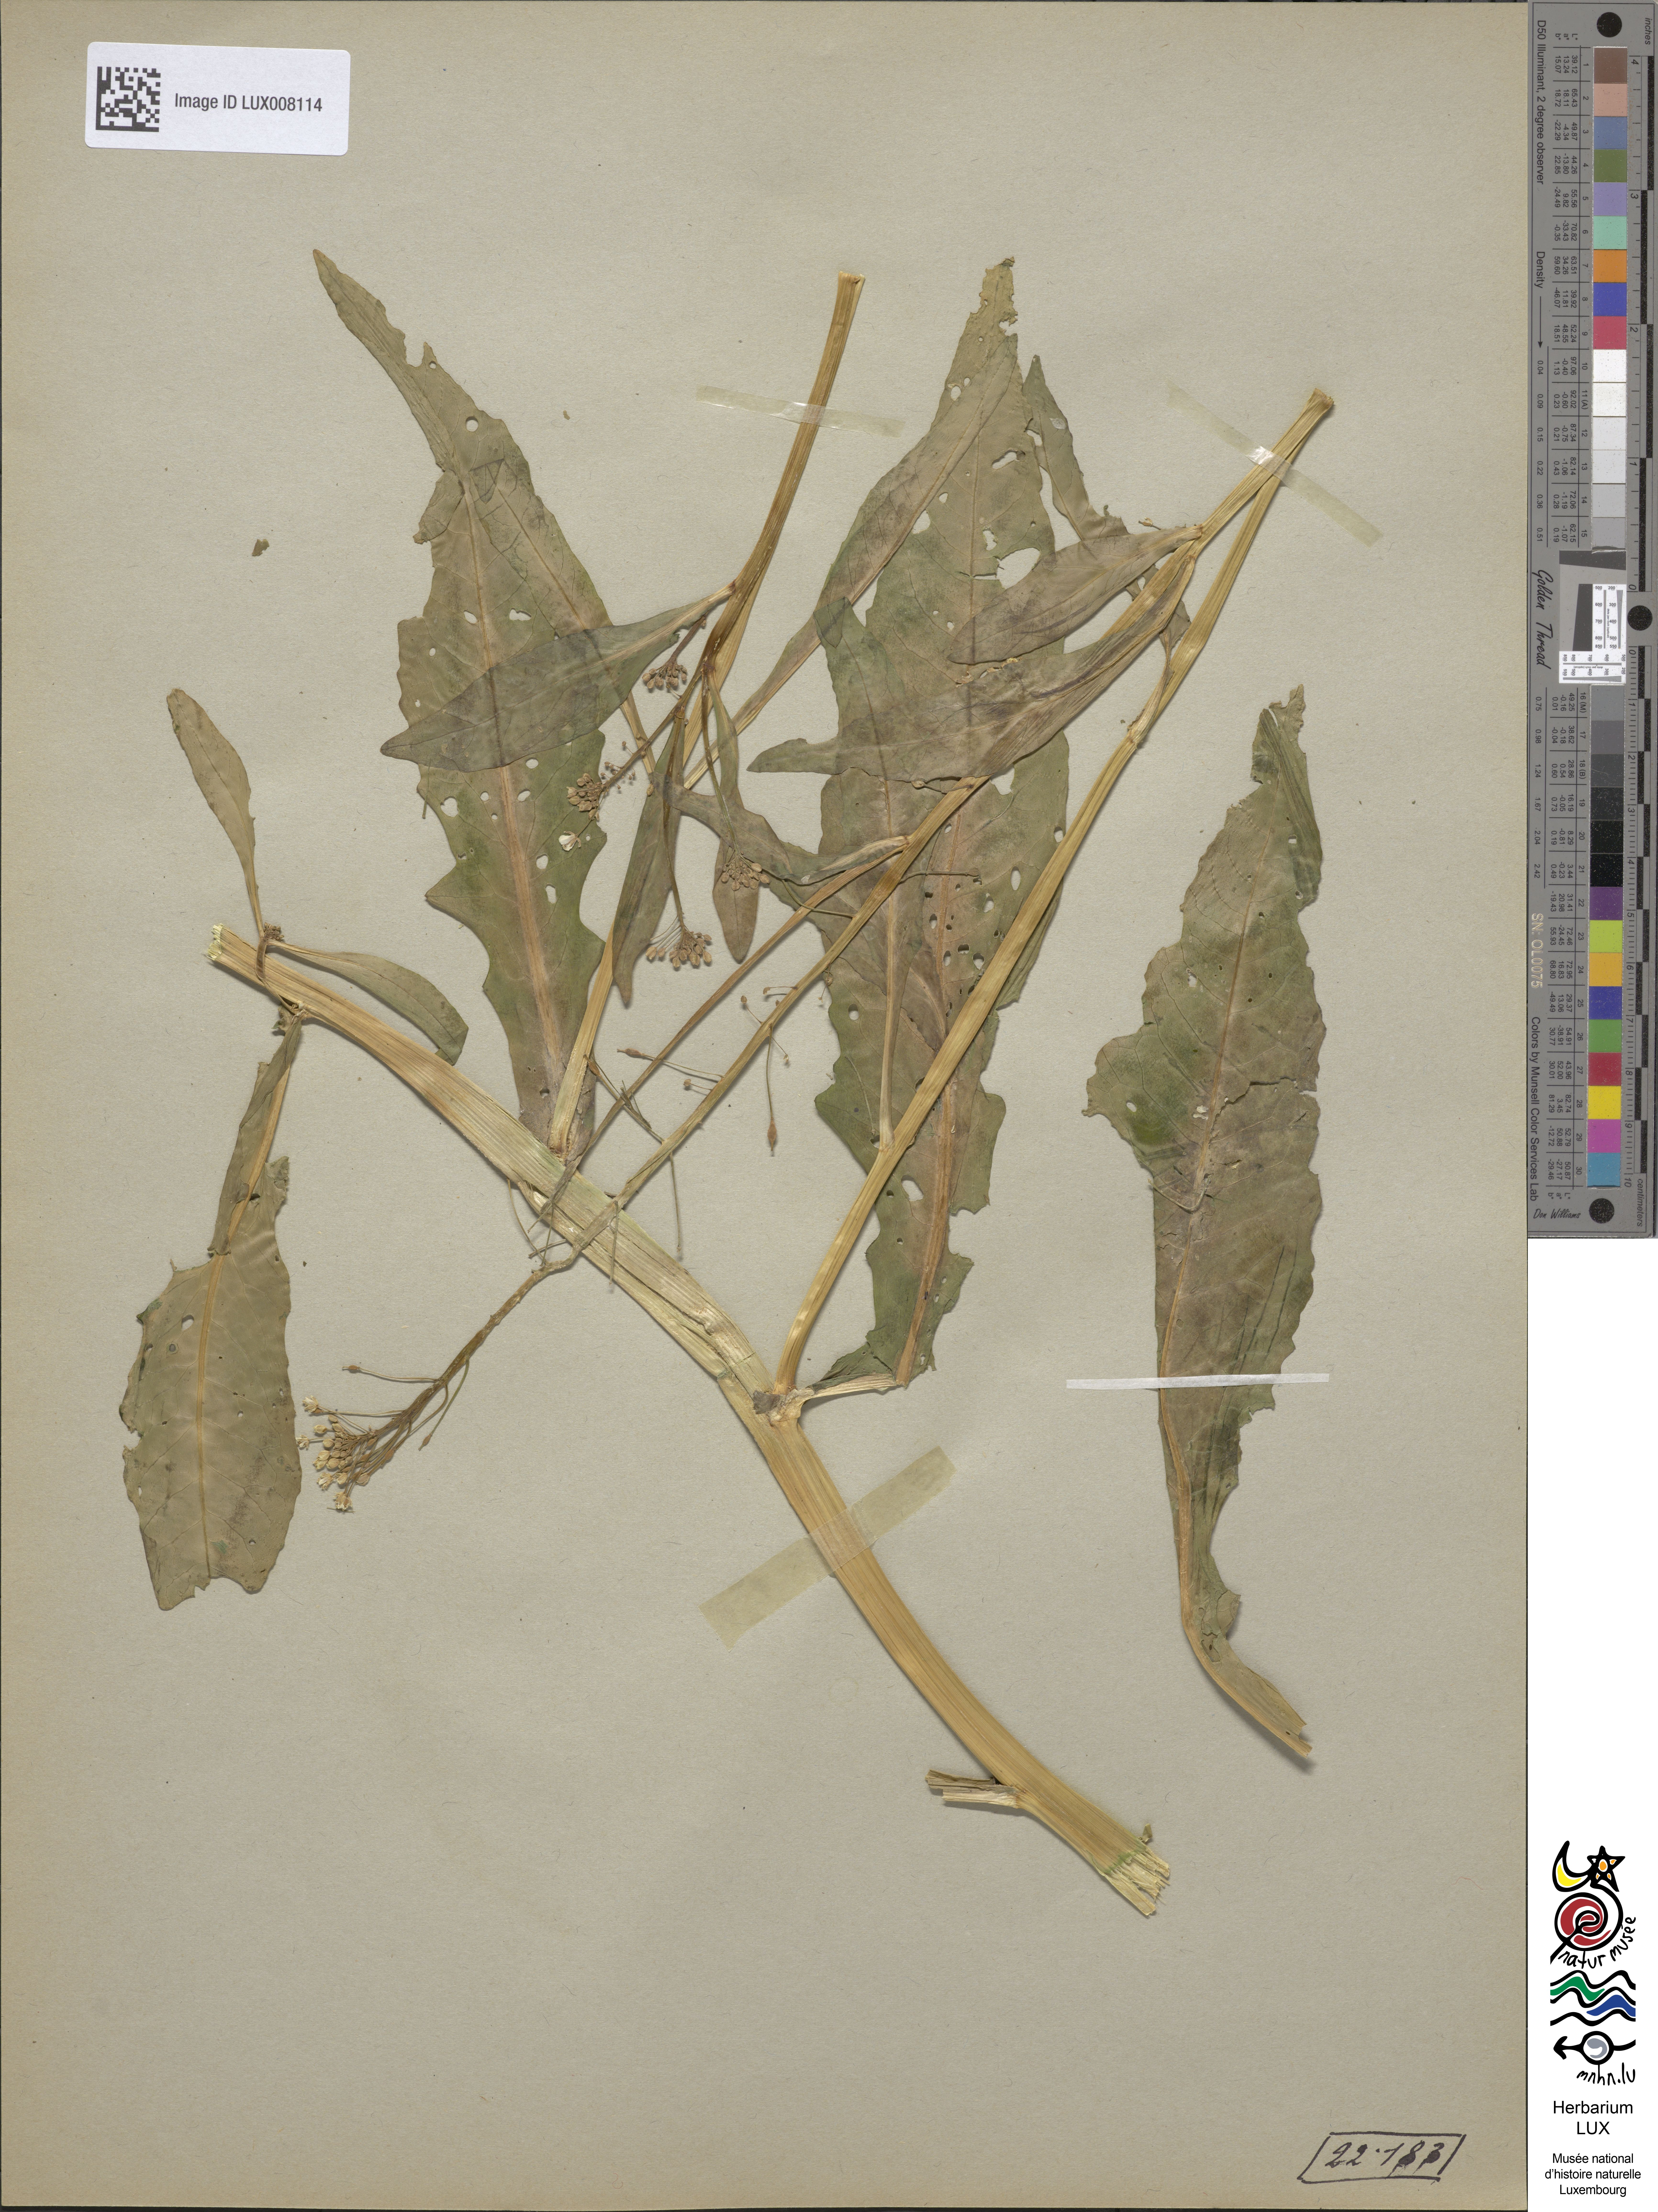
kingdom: Plantae
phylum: Tracheophyta
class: Magnoliopsida
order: Brassicales
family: Brassicaceae
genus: Rorippa
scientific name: Rorippa amphibia
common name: Great yellow-cress
